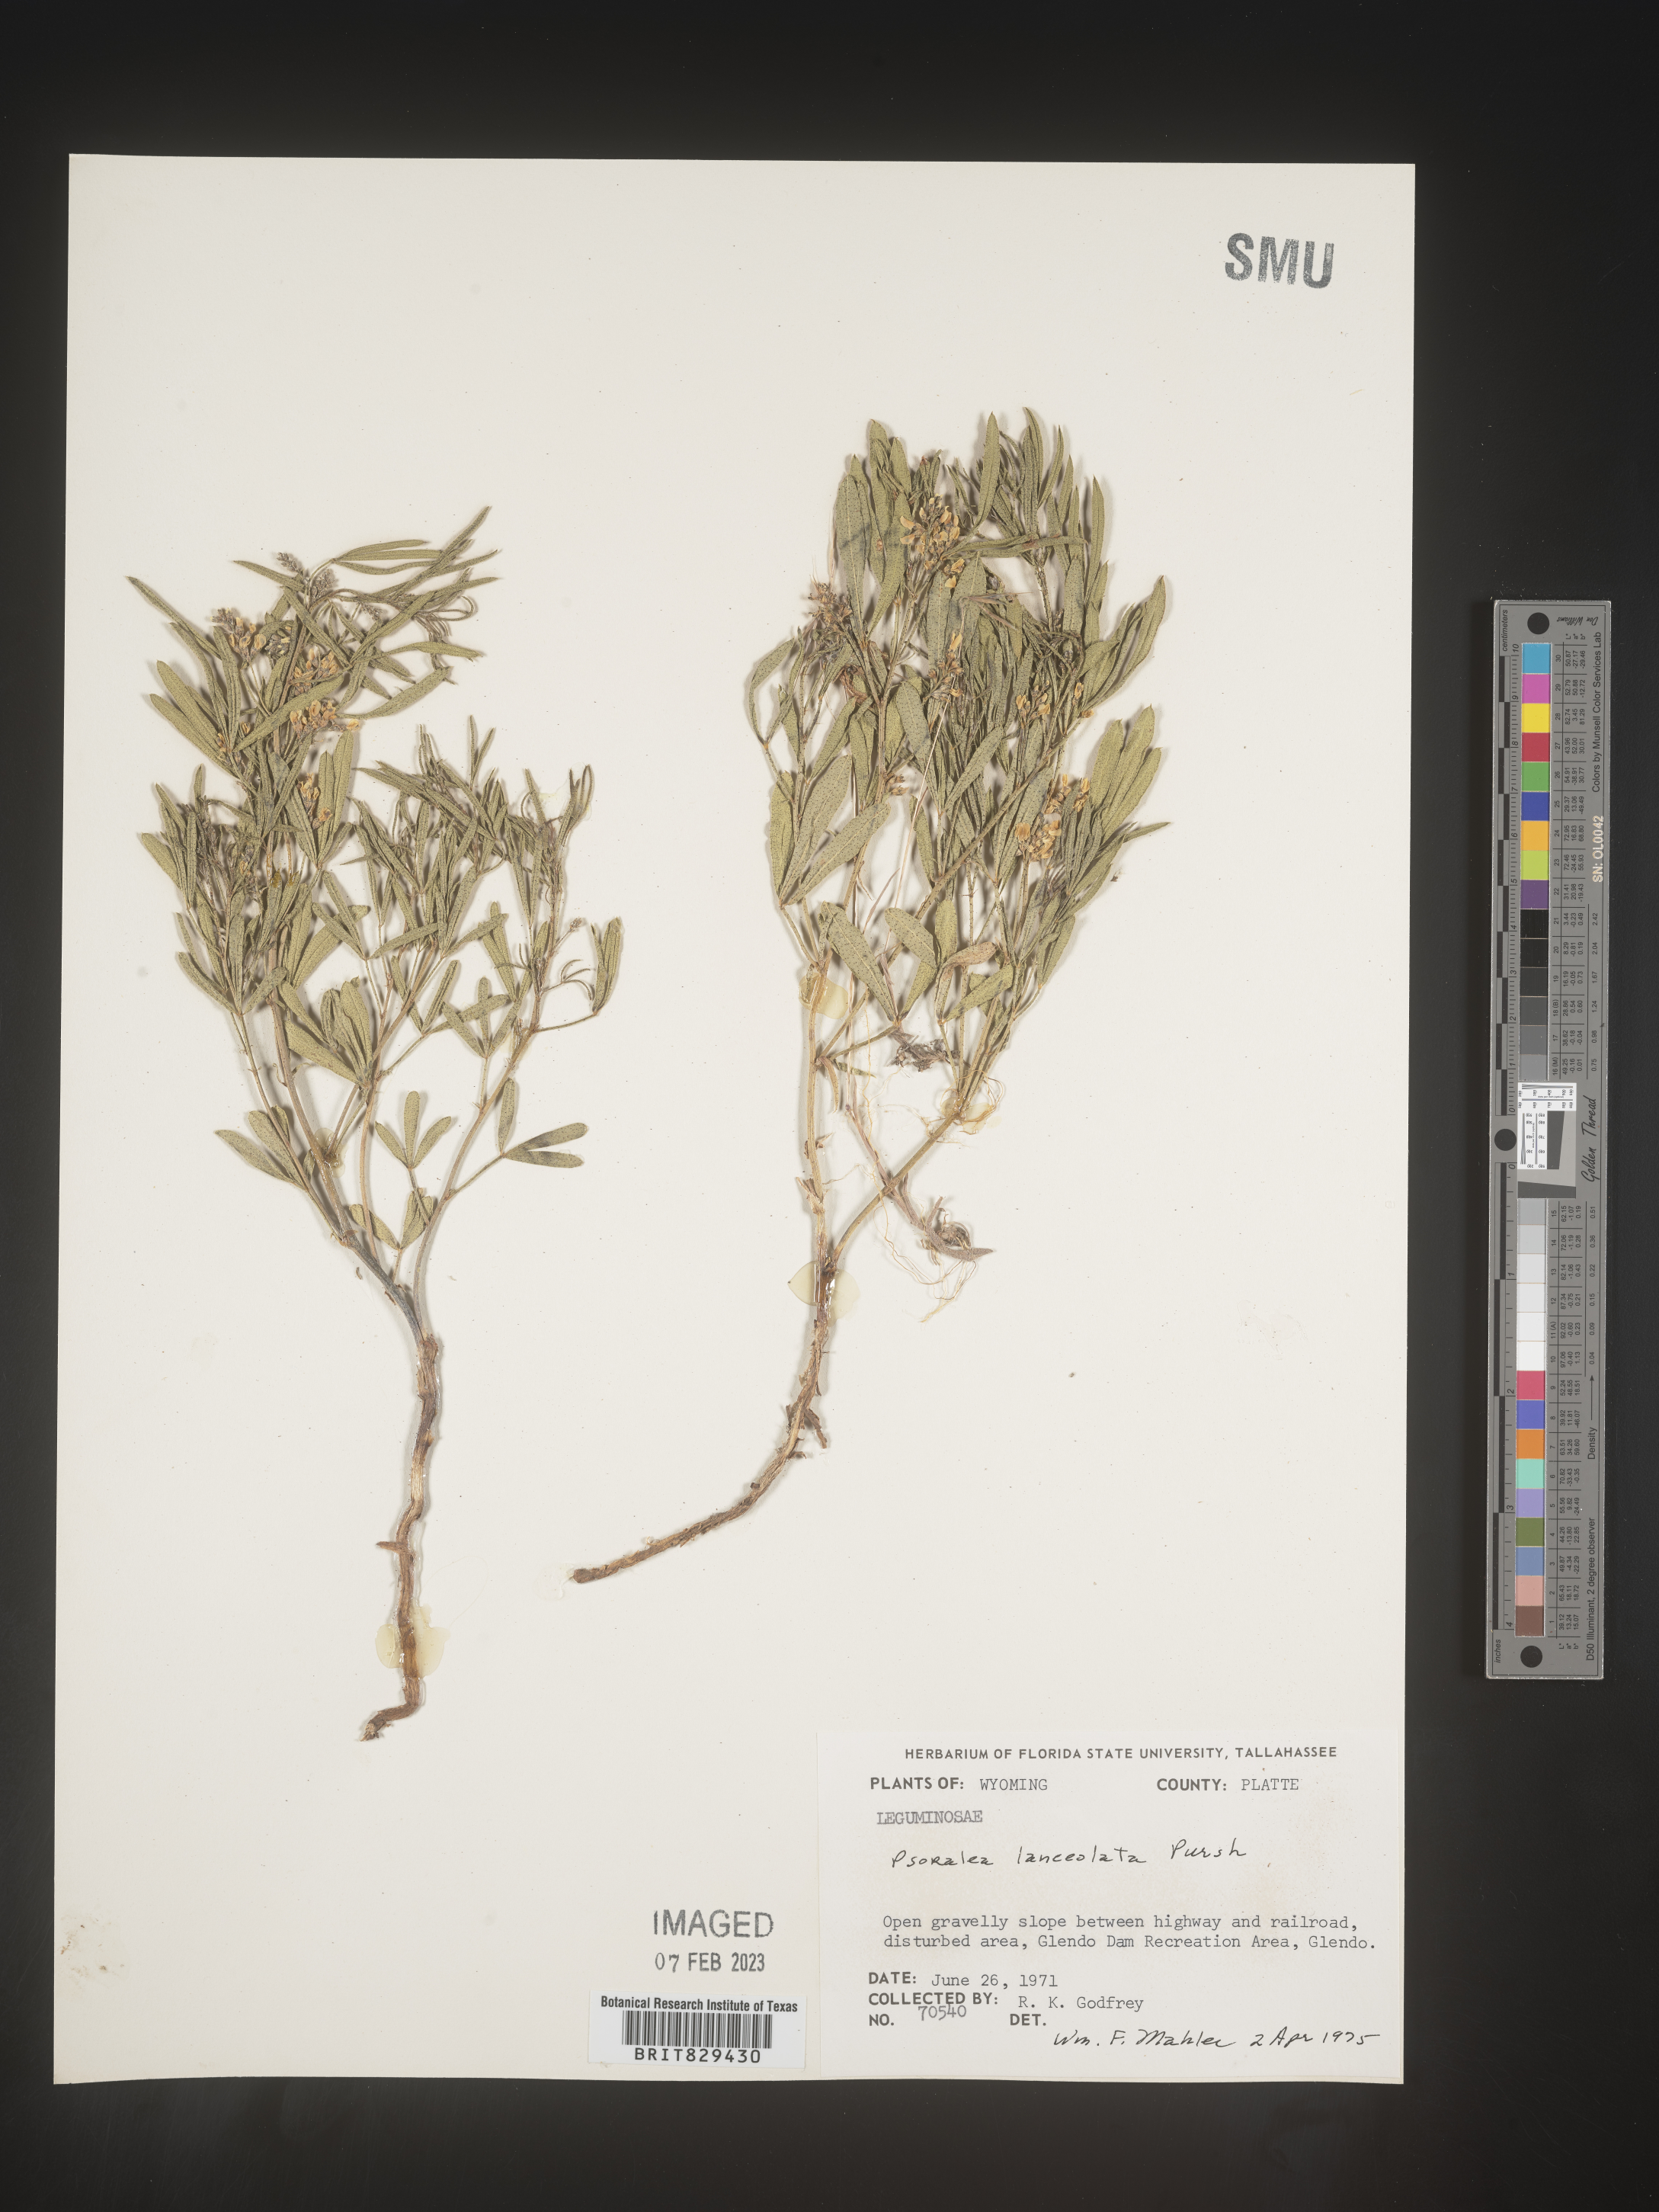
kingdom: Plantae
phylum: Tracheophyta
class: Magnoliopsida
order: Fabales
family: Fabaceae
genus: Psoralea
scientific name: Psoralea
